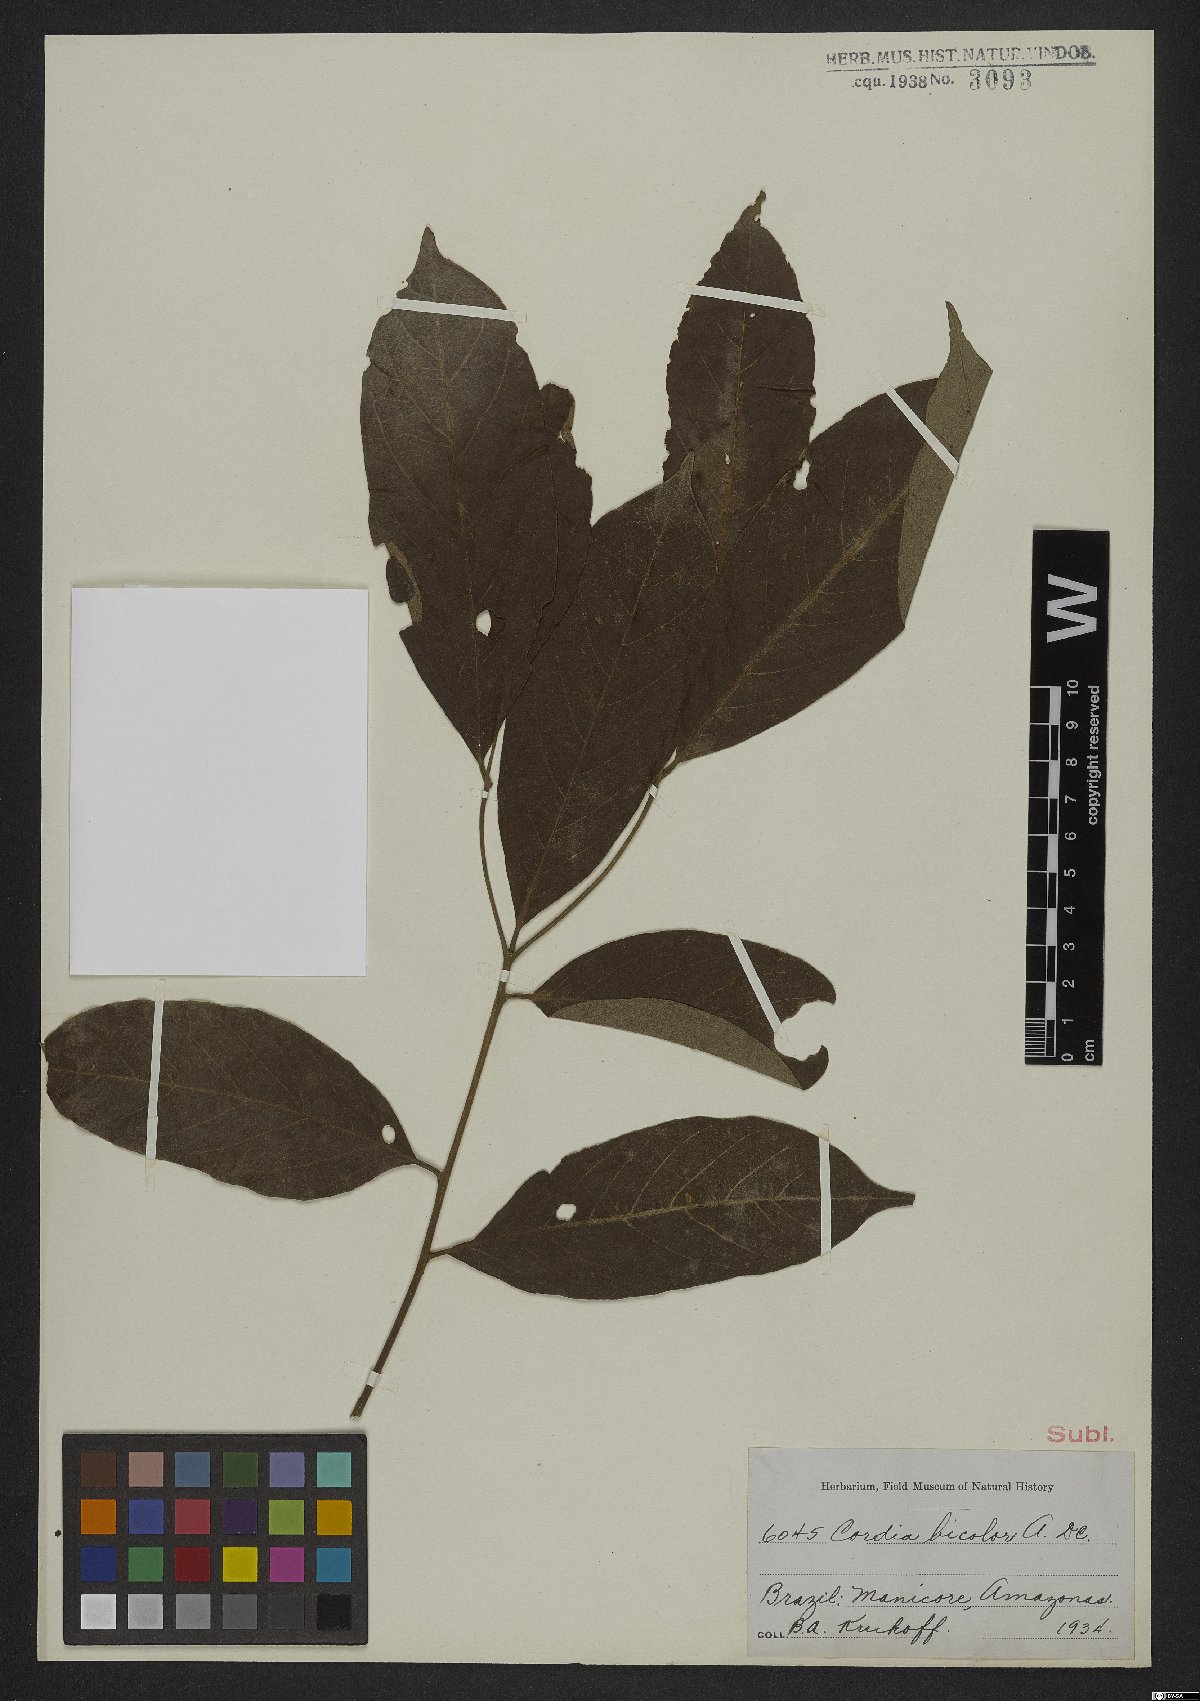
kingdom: Plantae
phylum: Tracheophyta
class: Magnoliopsida
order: Boraginales
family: Cordiaceae
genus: Cordia
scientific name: Cordia bicolor
